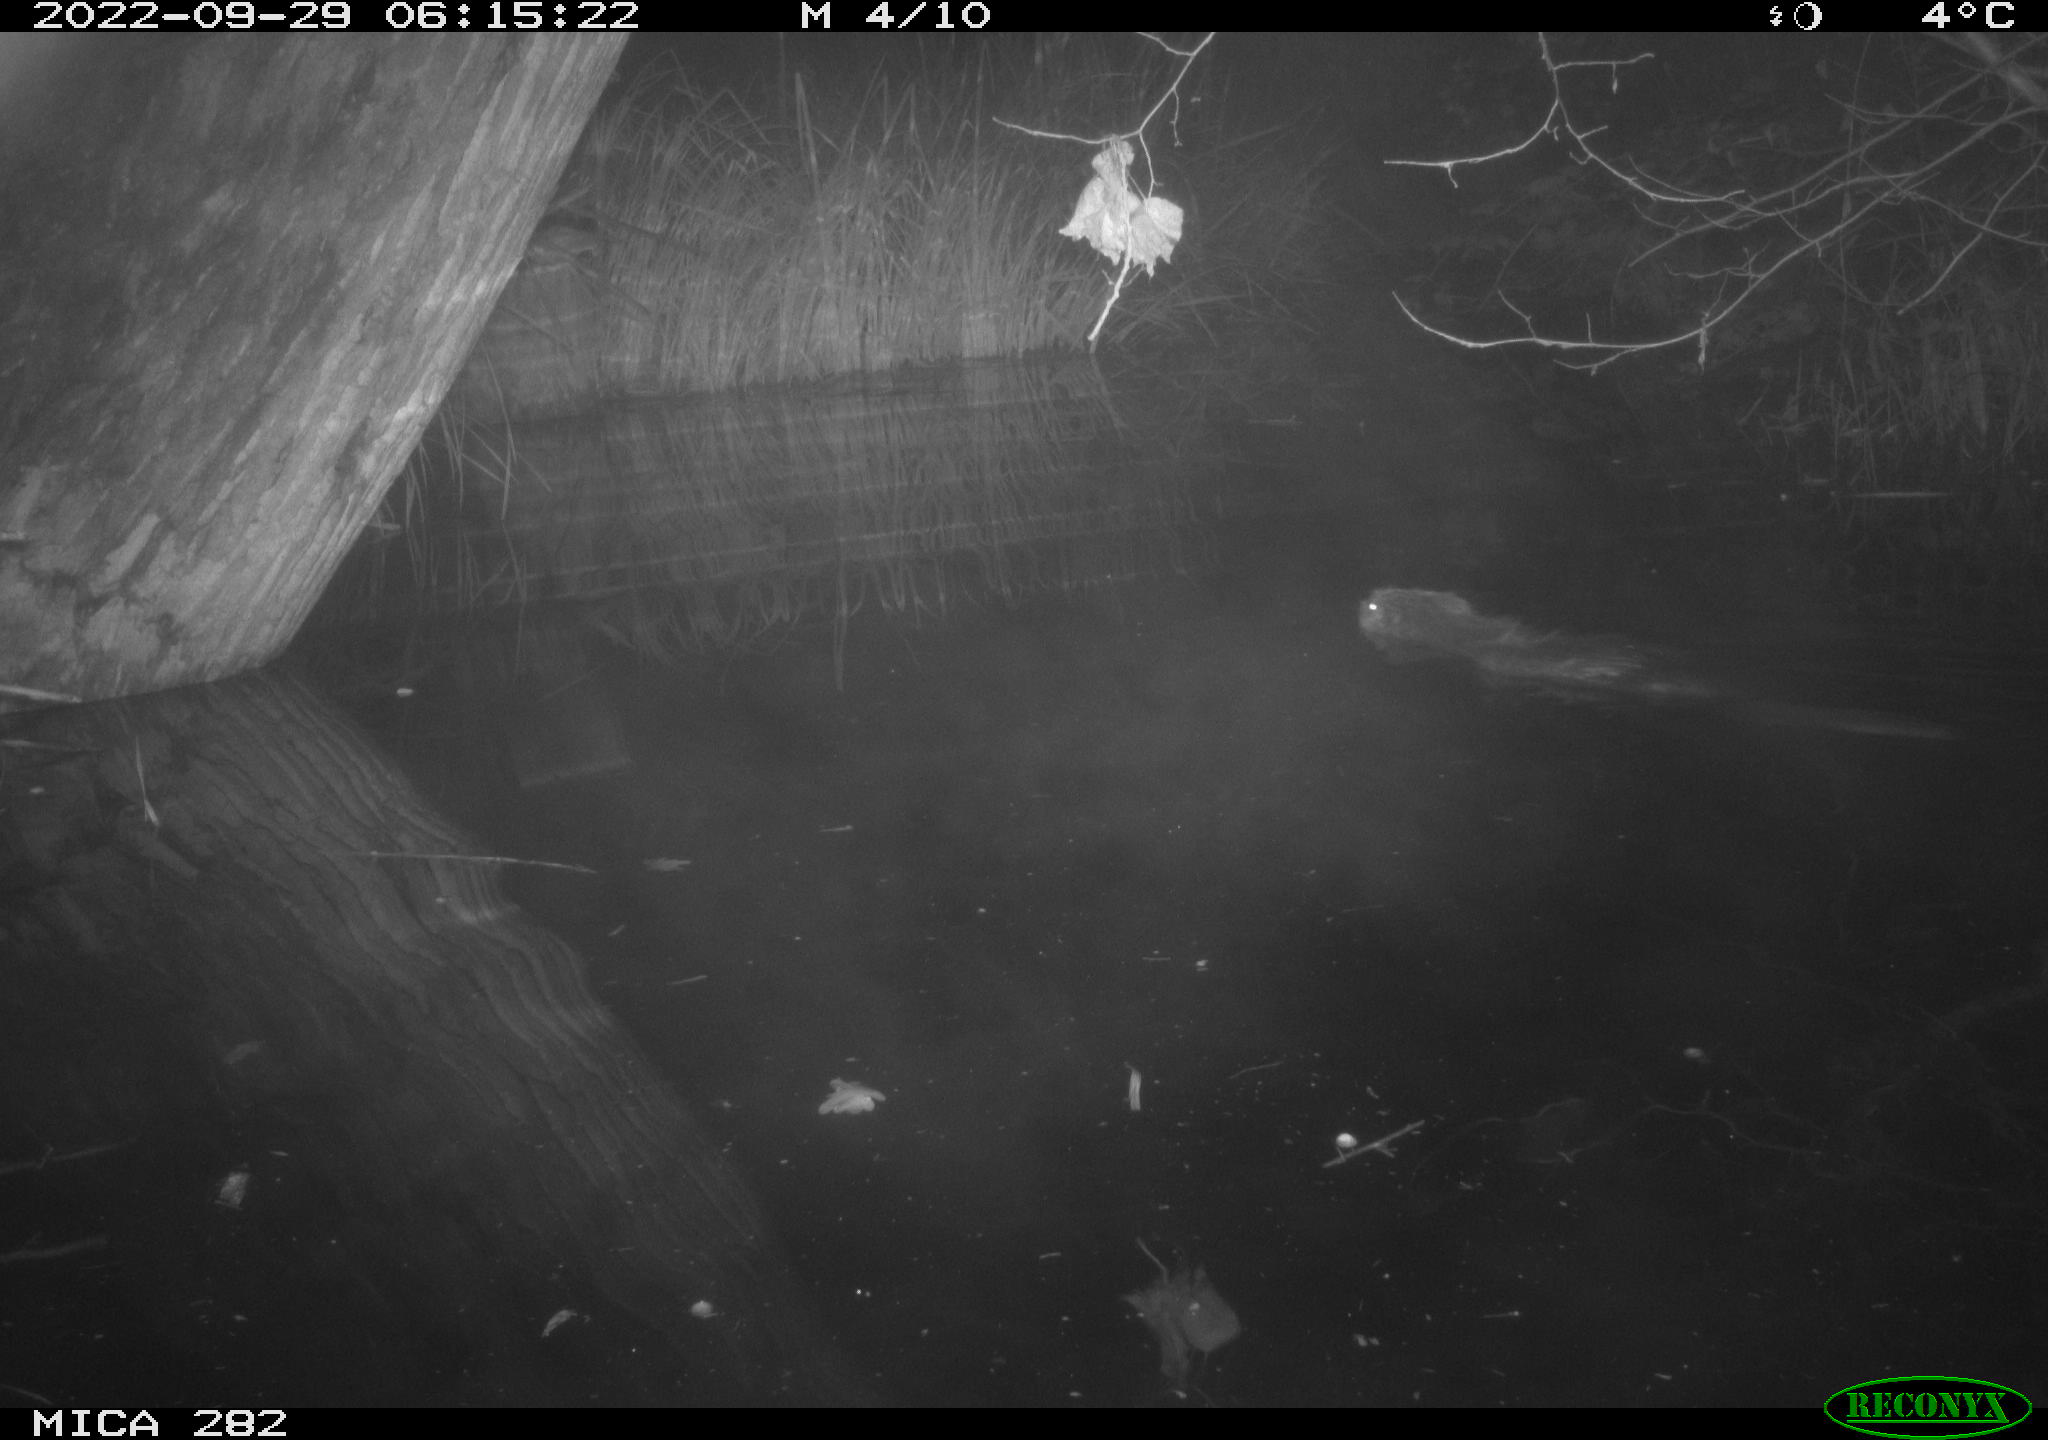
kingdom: Animalia
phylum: Chordata
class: Mammalia
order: Rodentia
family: Castoridae
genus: Castor
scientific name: Castor fiber
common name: Eurasian beaver
